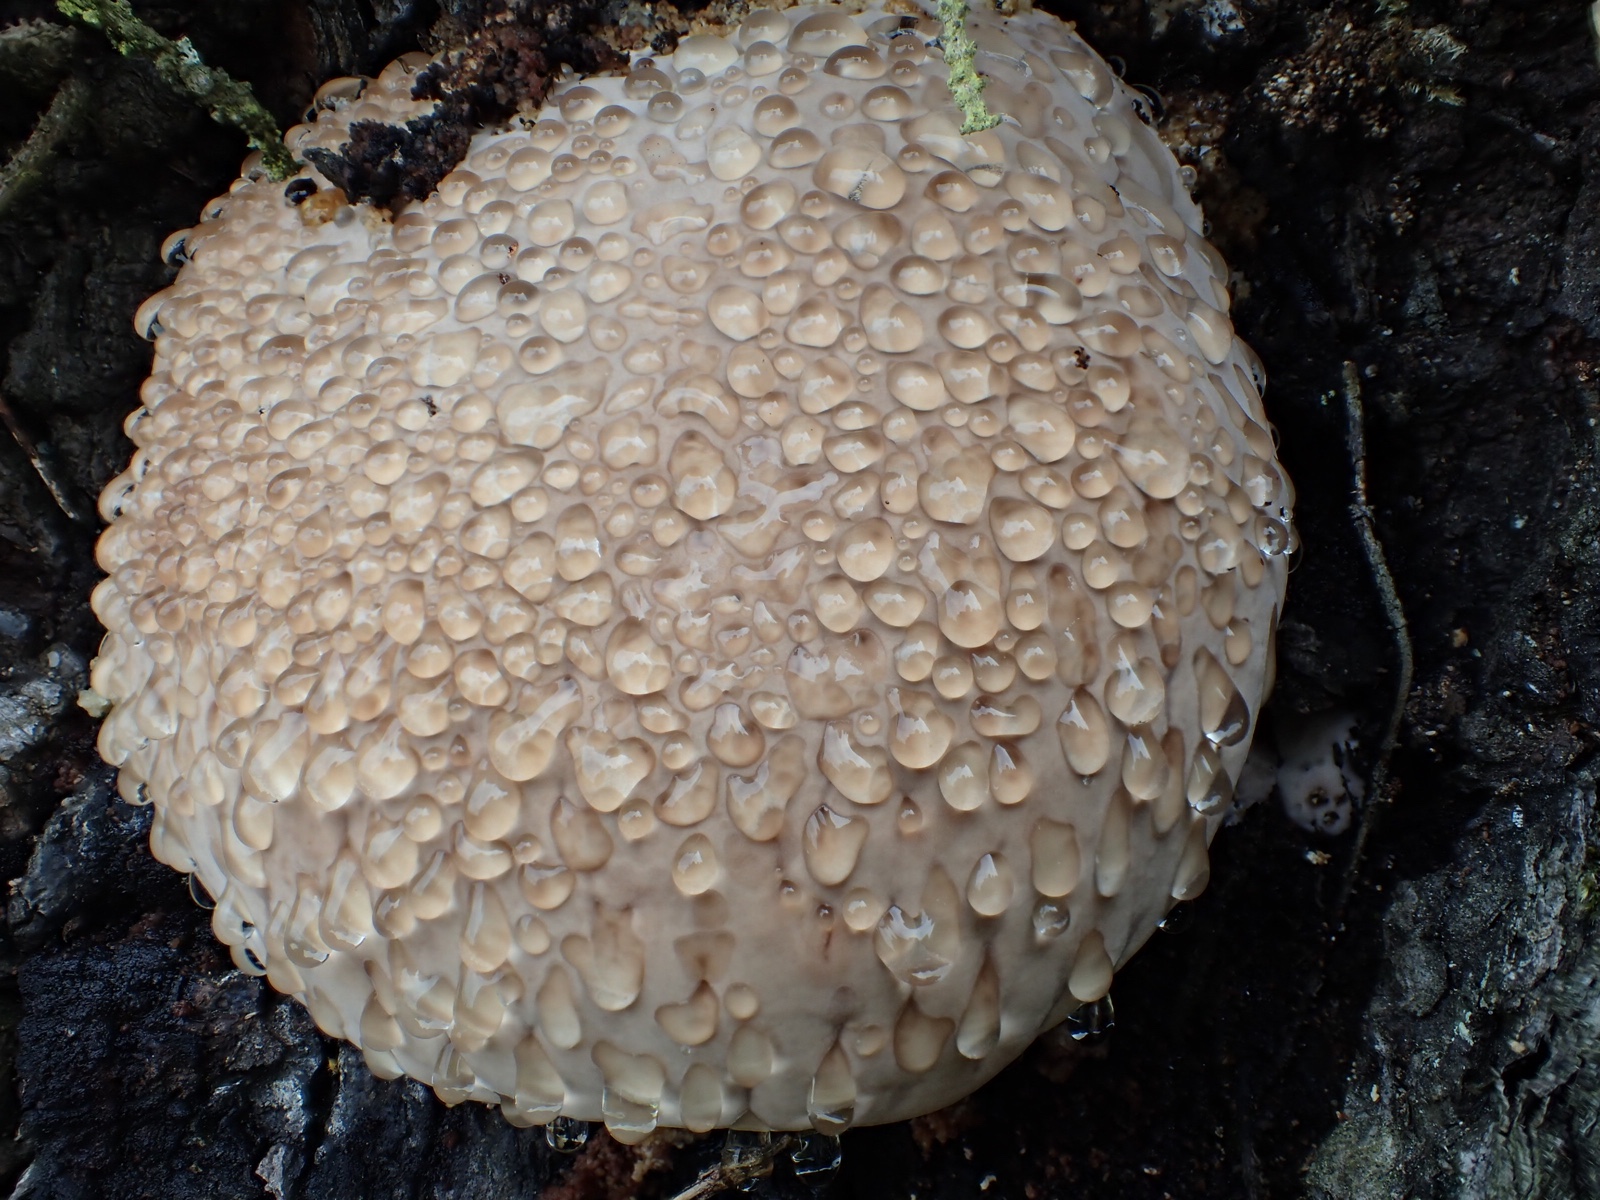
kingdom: Fungi
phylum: Basidiomycota
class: Agaricomycetes
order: Polyporales
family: Fomitopsidaceae
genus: Fomitopsis
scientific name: Fomitopsis pinicola
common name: randbæltet hovporesvamp
